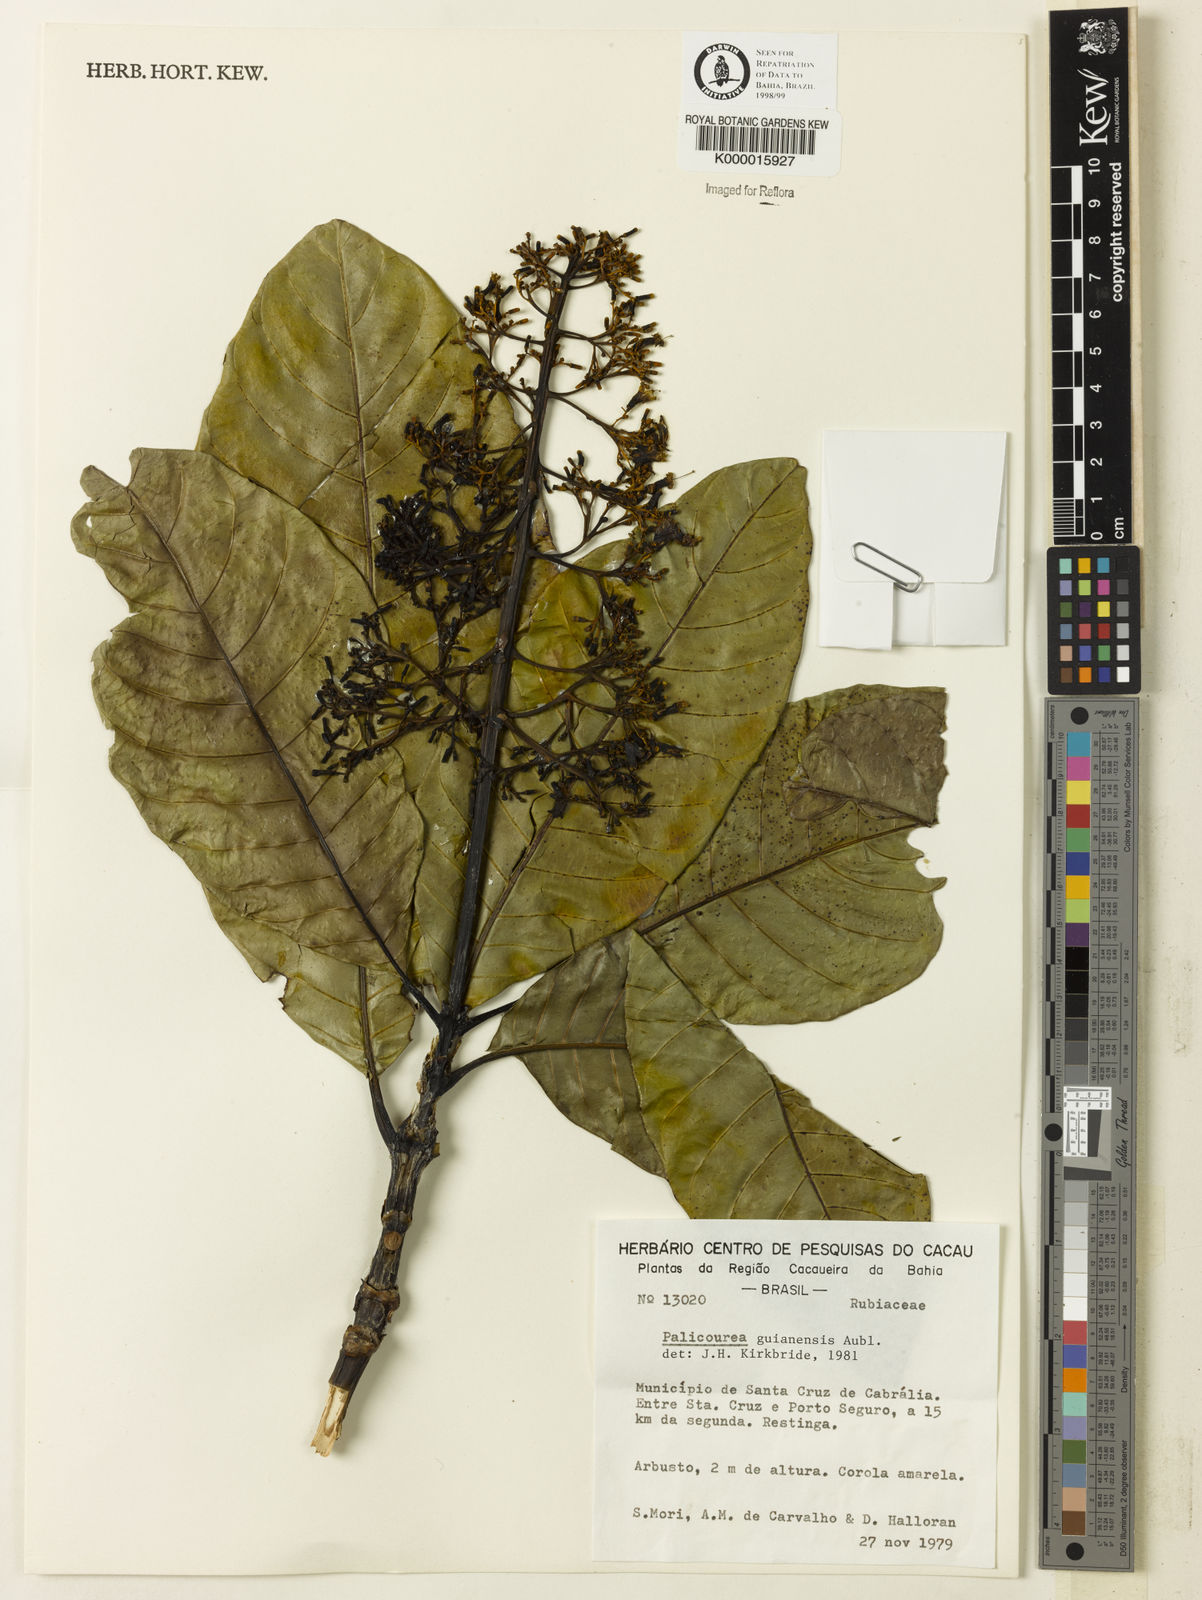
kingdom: Plantae
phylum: Tracheophyta
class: Magnoliopsida
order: Gentianales
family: Rubiaceae
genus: Palicourea
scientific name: Palicourea guianensis
